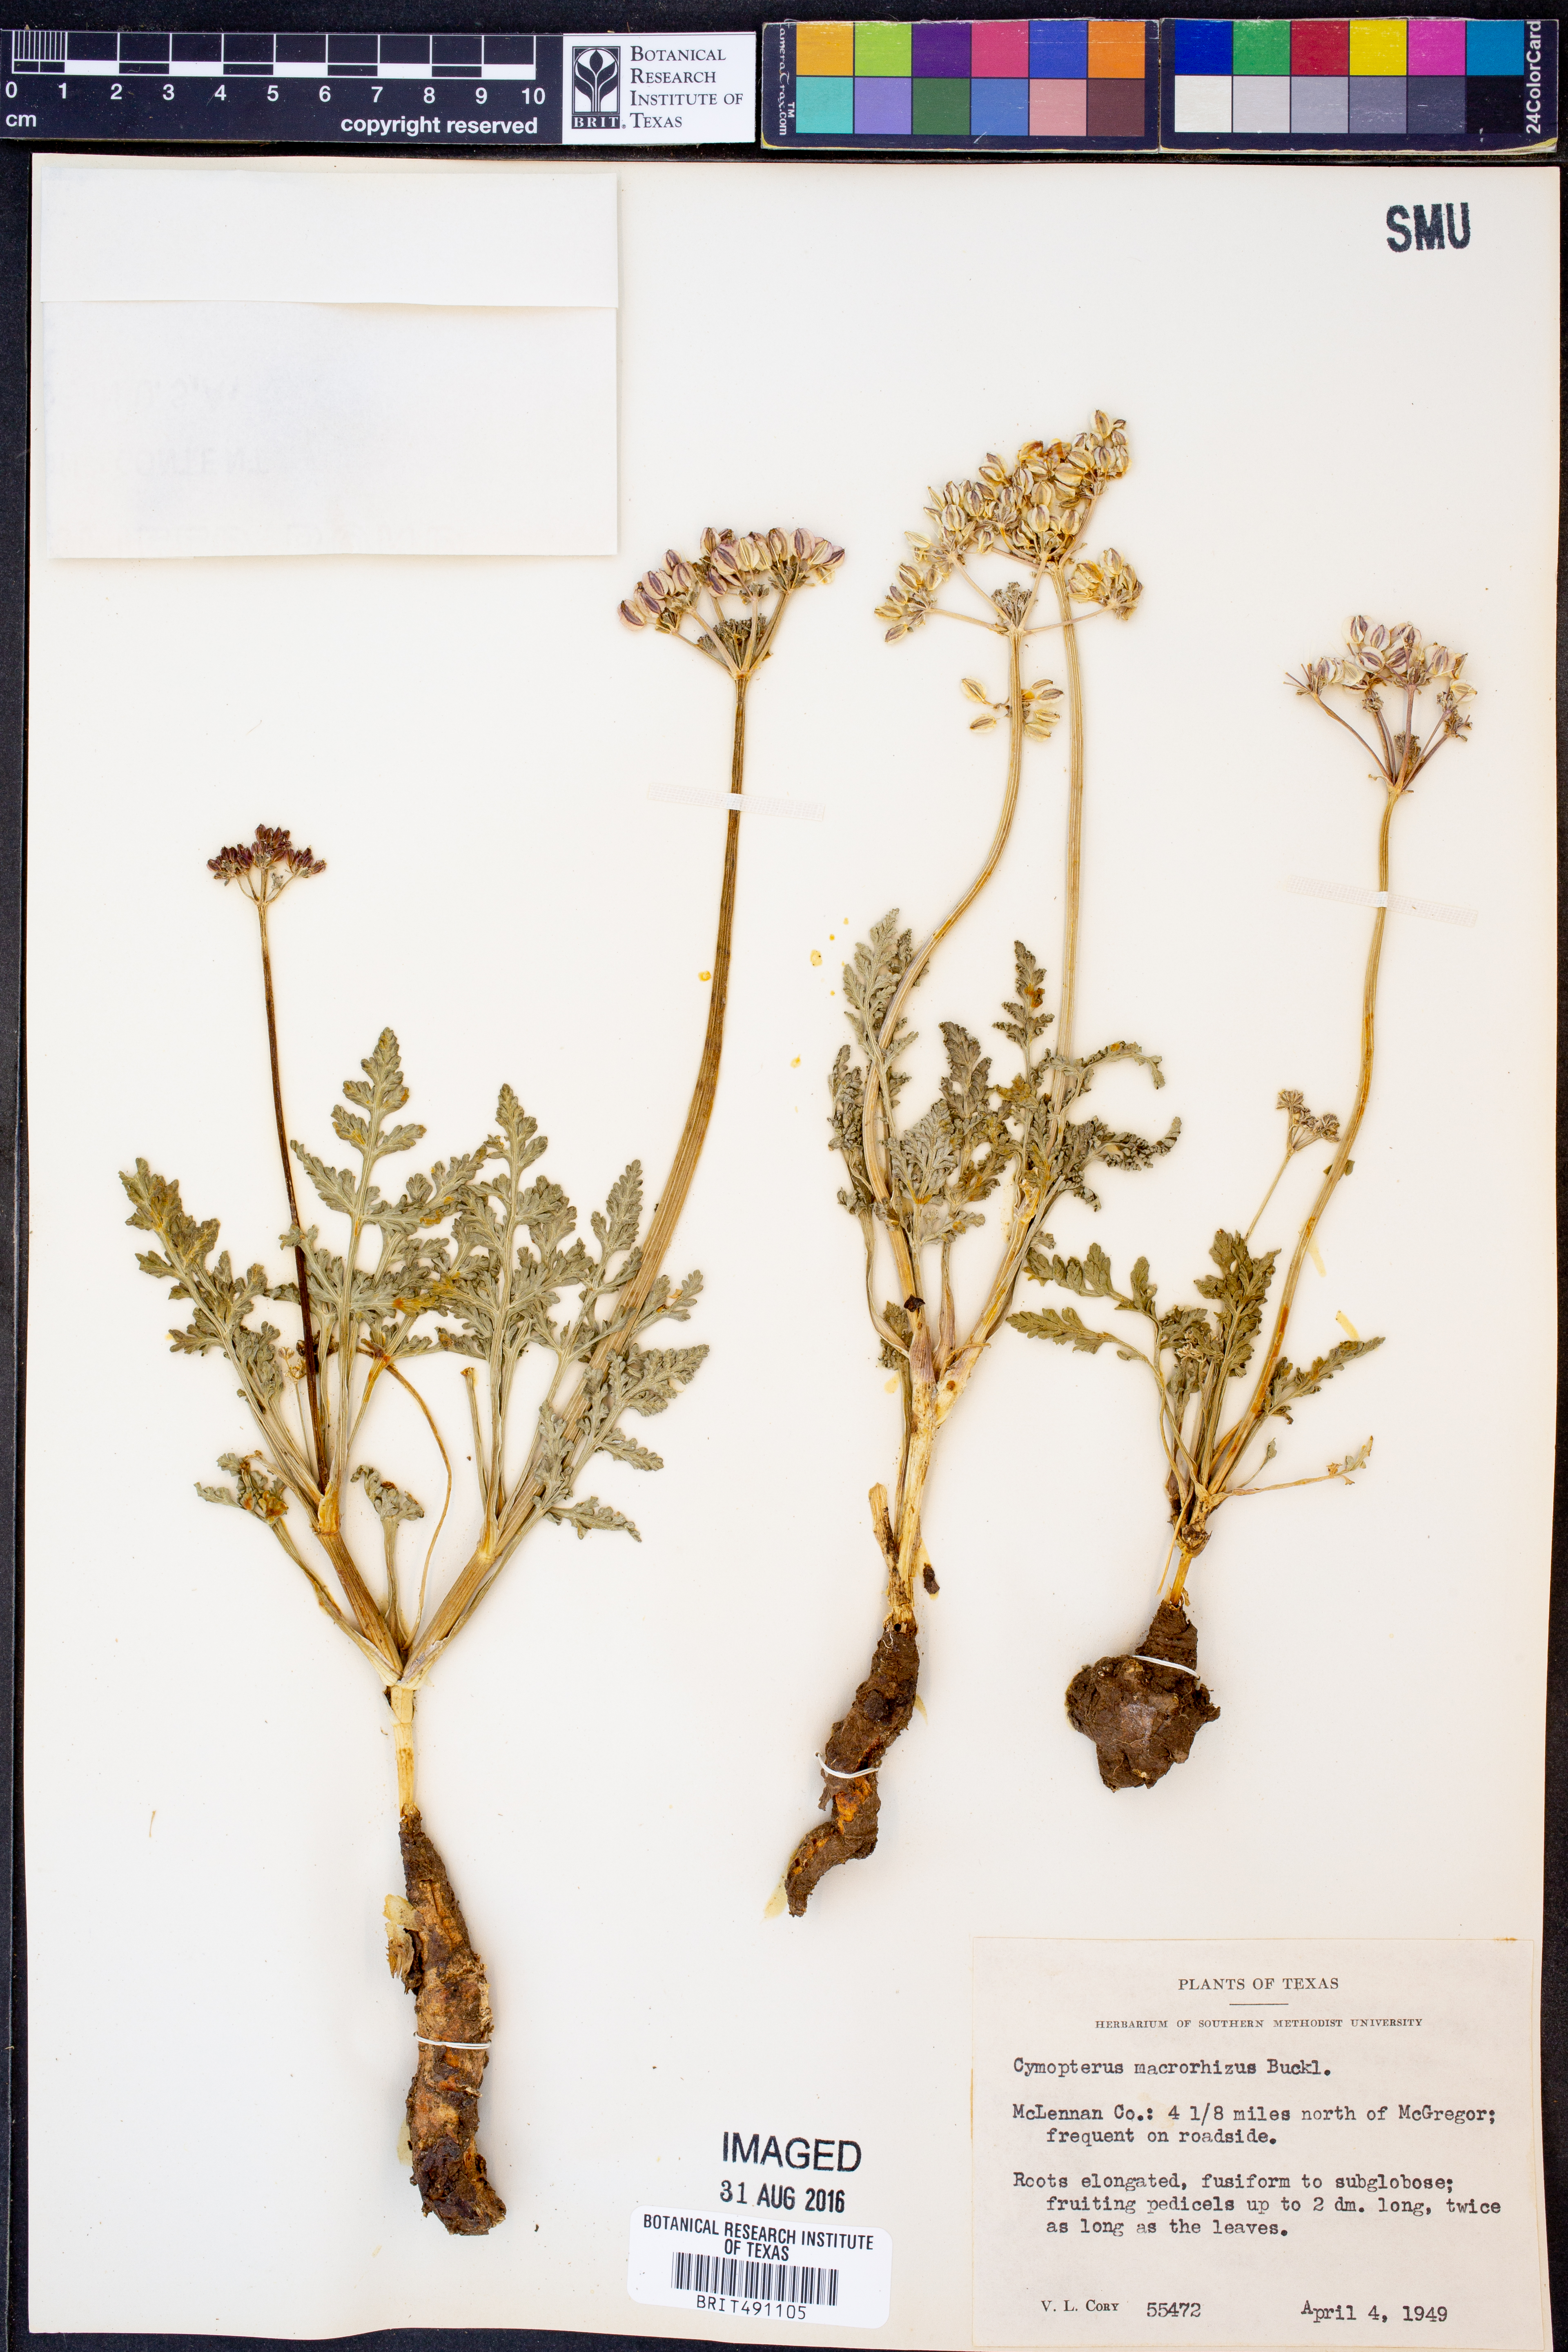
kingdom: Plantae
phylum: Tracheophyta
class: Magnoliopsida
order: Apiales
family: Apiaceae
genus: Vesper
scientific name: Vesper macrorhizus
